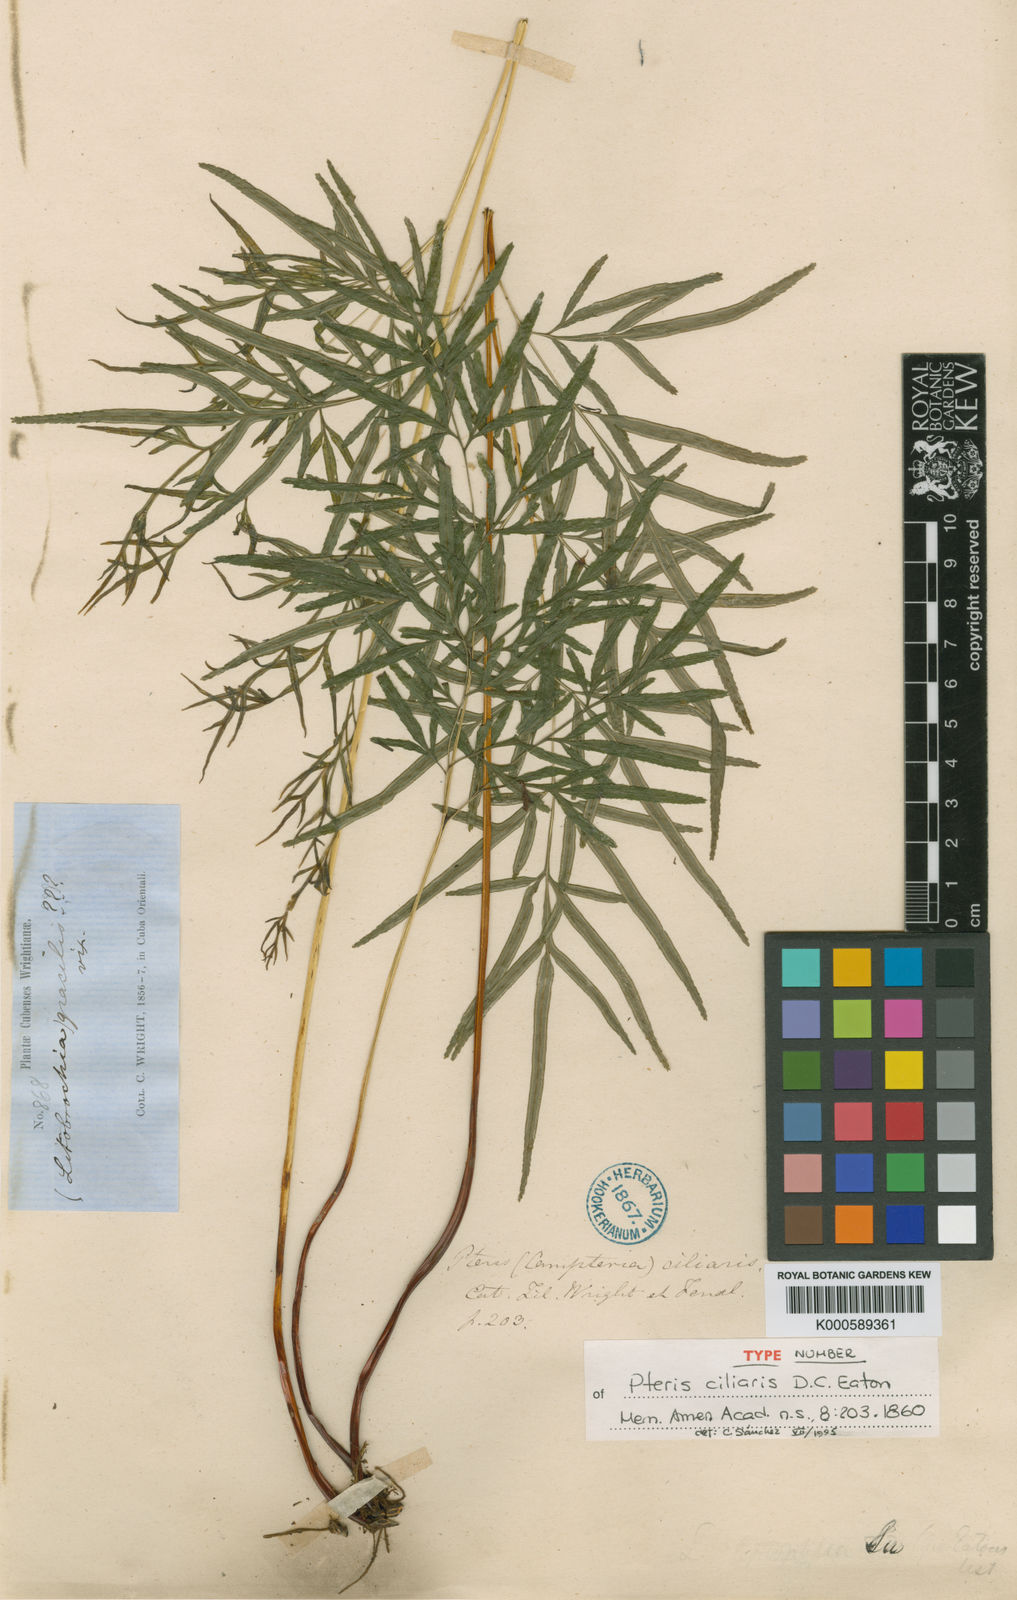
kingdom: Plantae
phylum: Tracheophyta
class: Polypodiopsida
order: Polypodiales
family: Pteridaceae
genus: Pteris
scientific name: Pteris ciliaris
